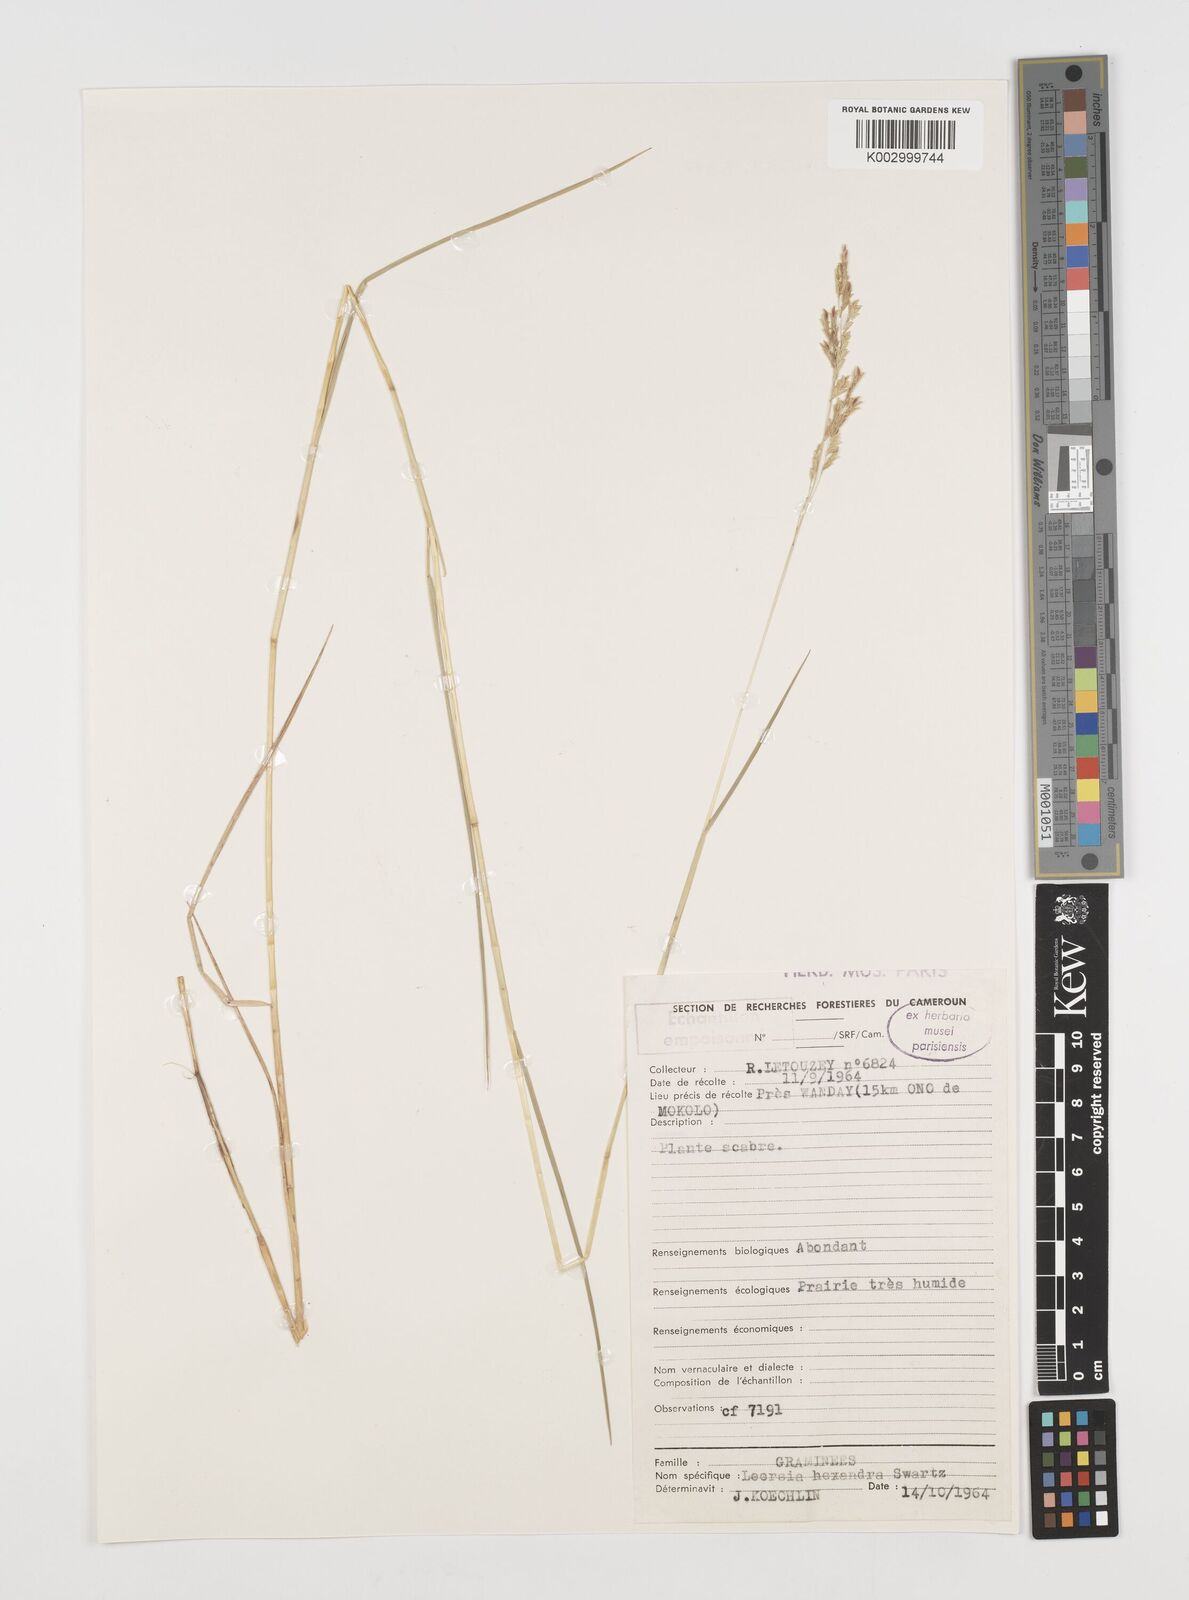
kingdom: Plantae
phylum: Tracheophyta
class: Liliopsida
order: Poales
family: Poaceae
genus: Leersia
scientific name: Leersia hexandra
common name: Southern cut grass
